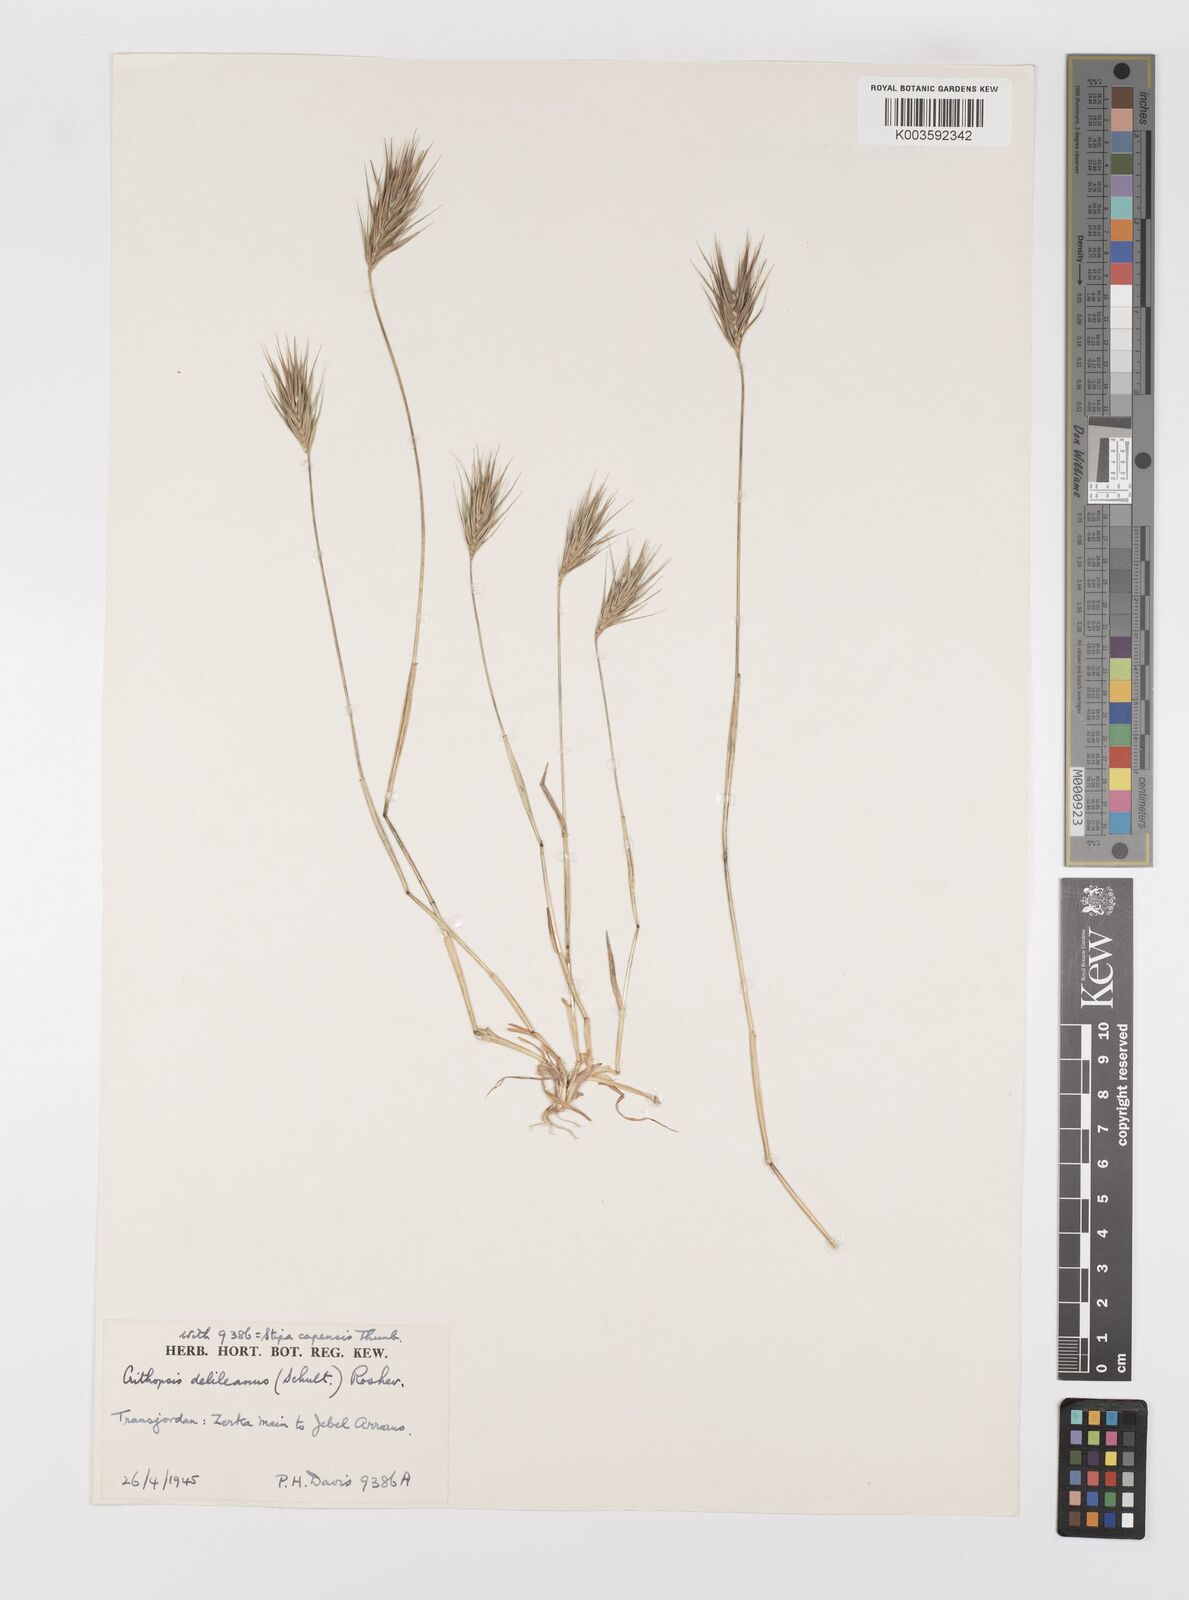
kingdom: Plantae
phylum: Tracheophyta
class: Liliopsida
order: Poales
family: Poaceae
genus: Crithopsis
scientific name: Crithopsis delileana
